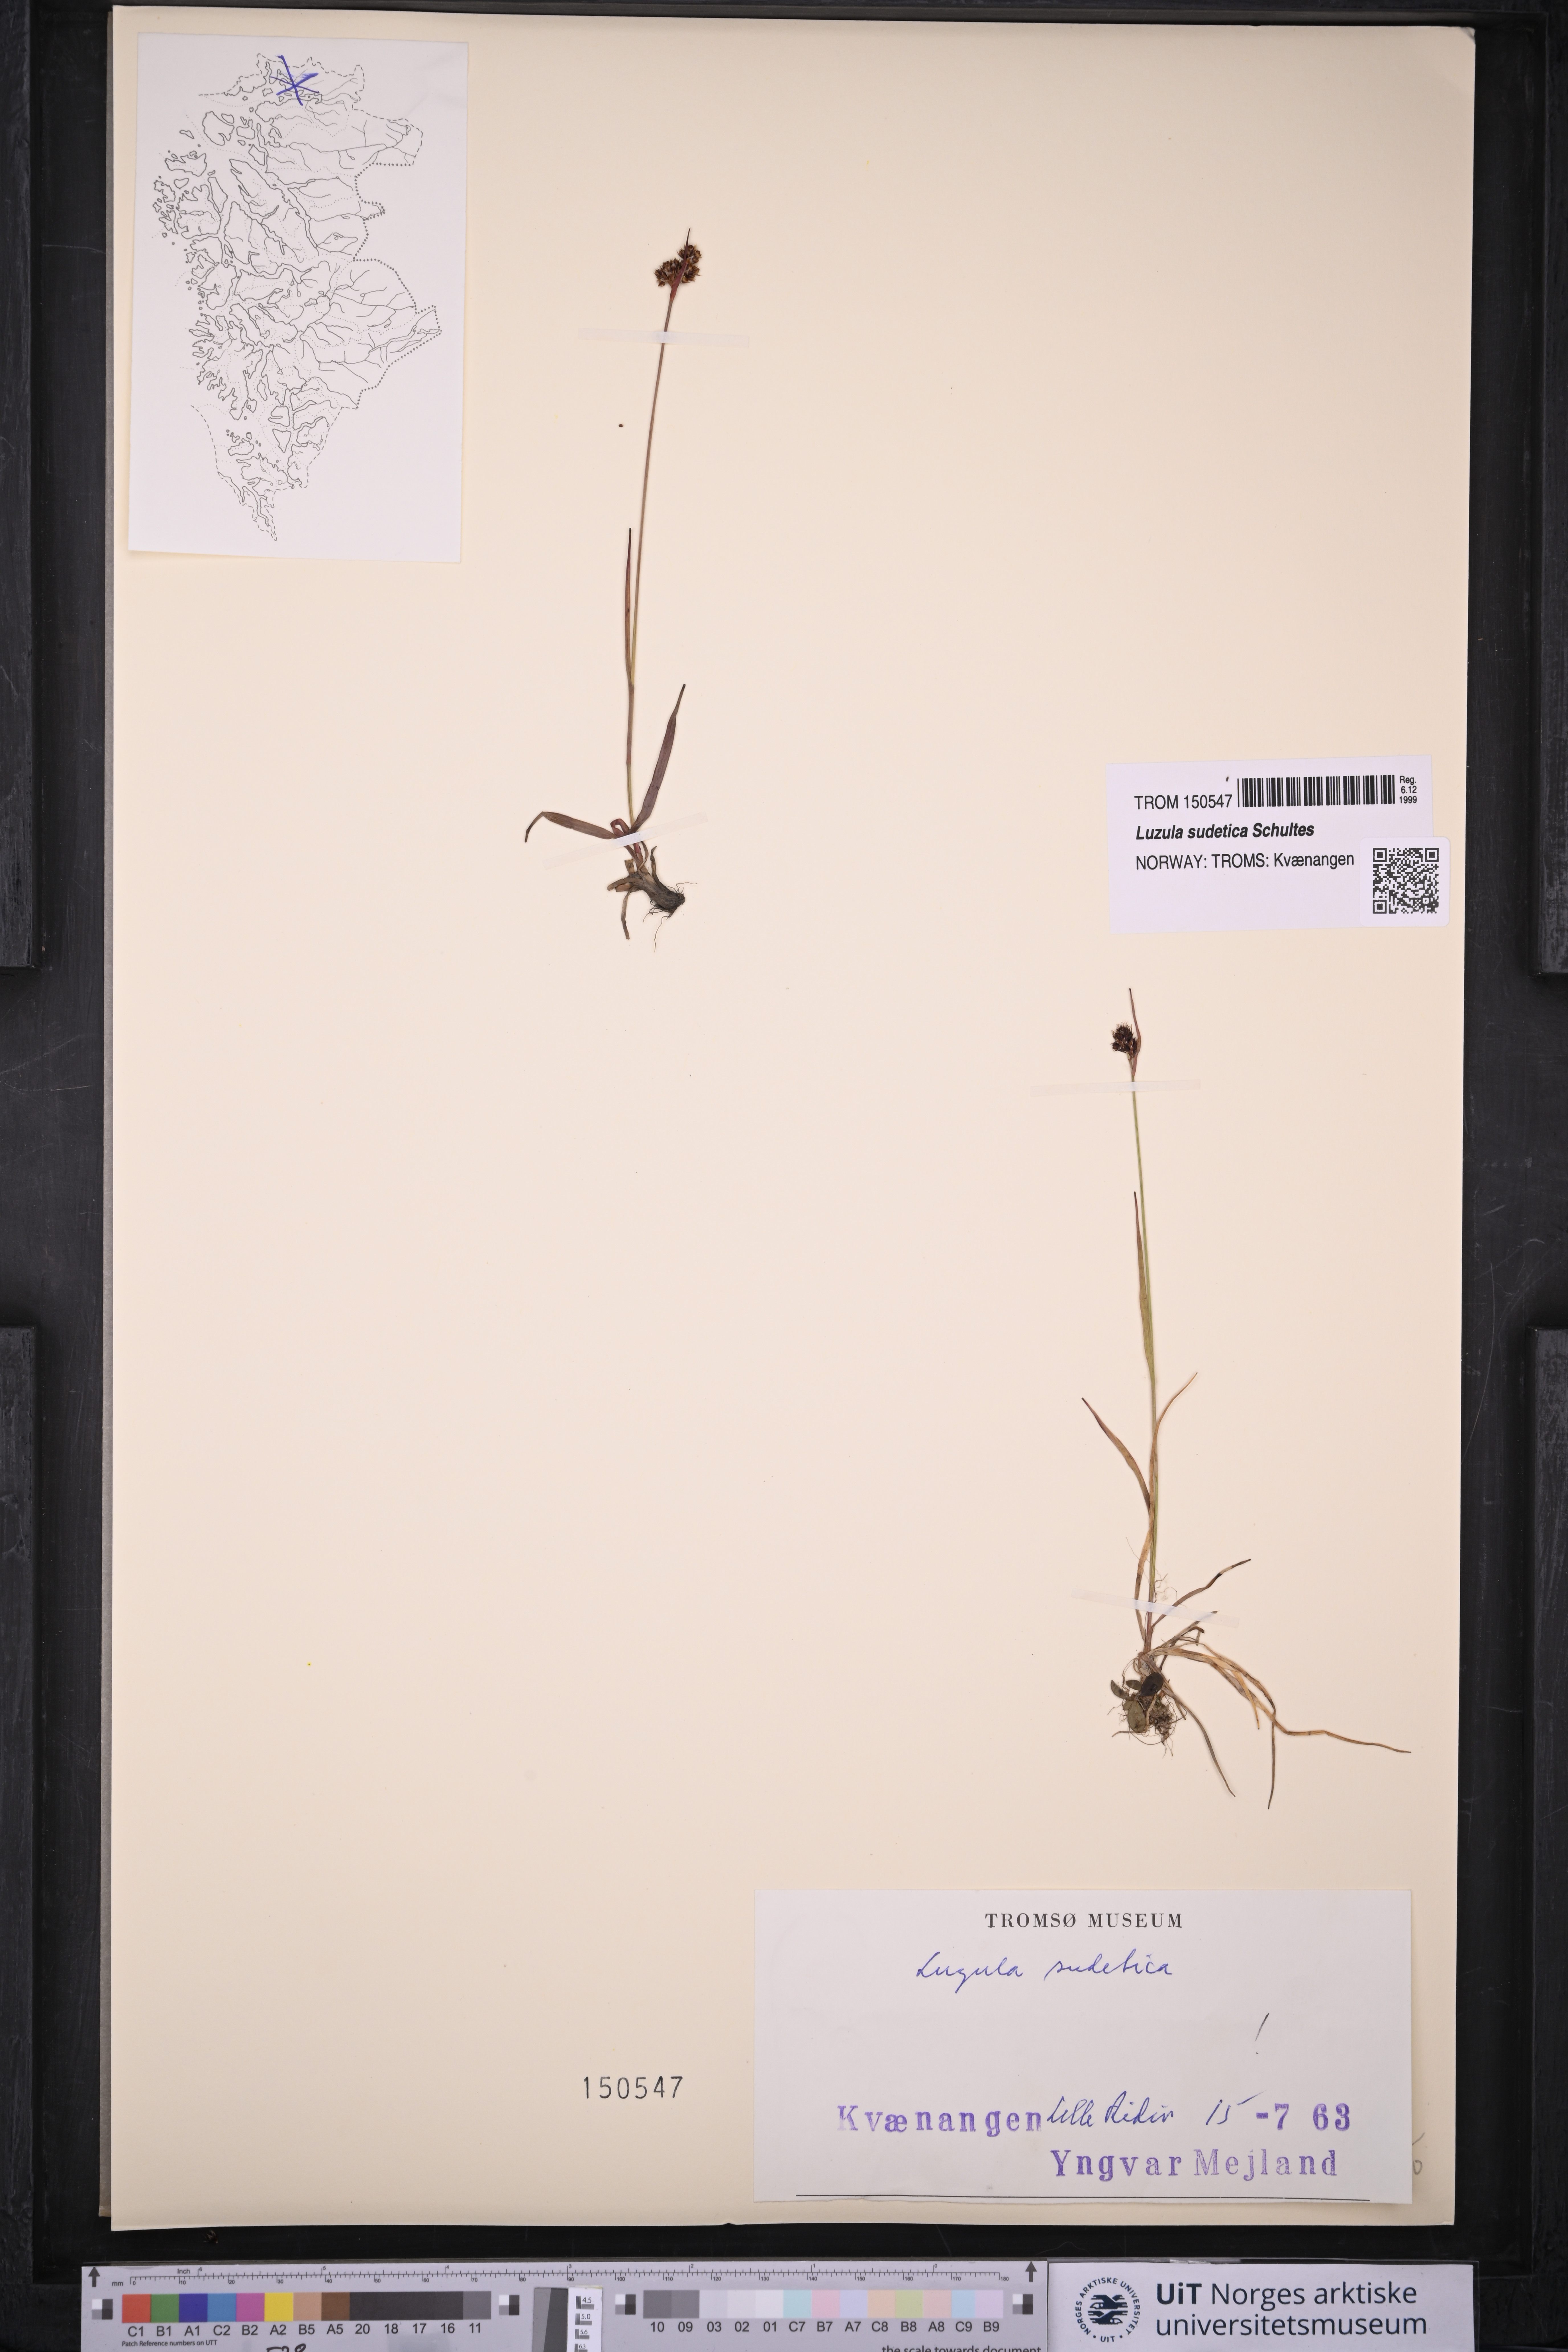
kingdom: Plantae
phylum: Tracheophyta
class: Liliopsida
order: Poales
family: Juncaceae
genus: Luzula
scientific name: Luzula sudetica
